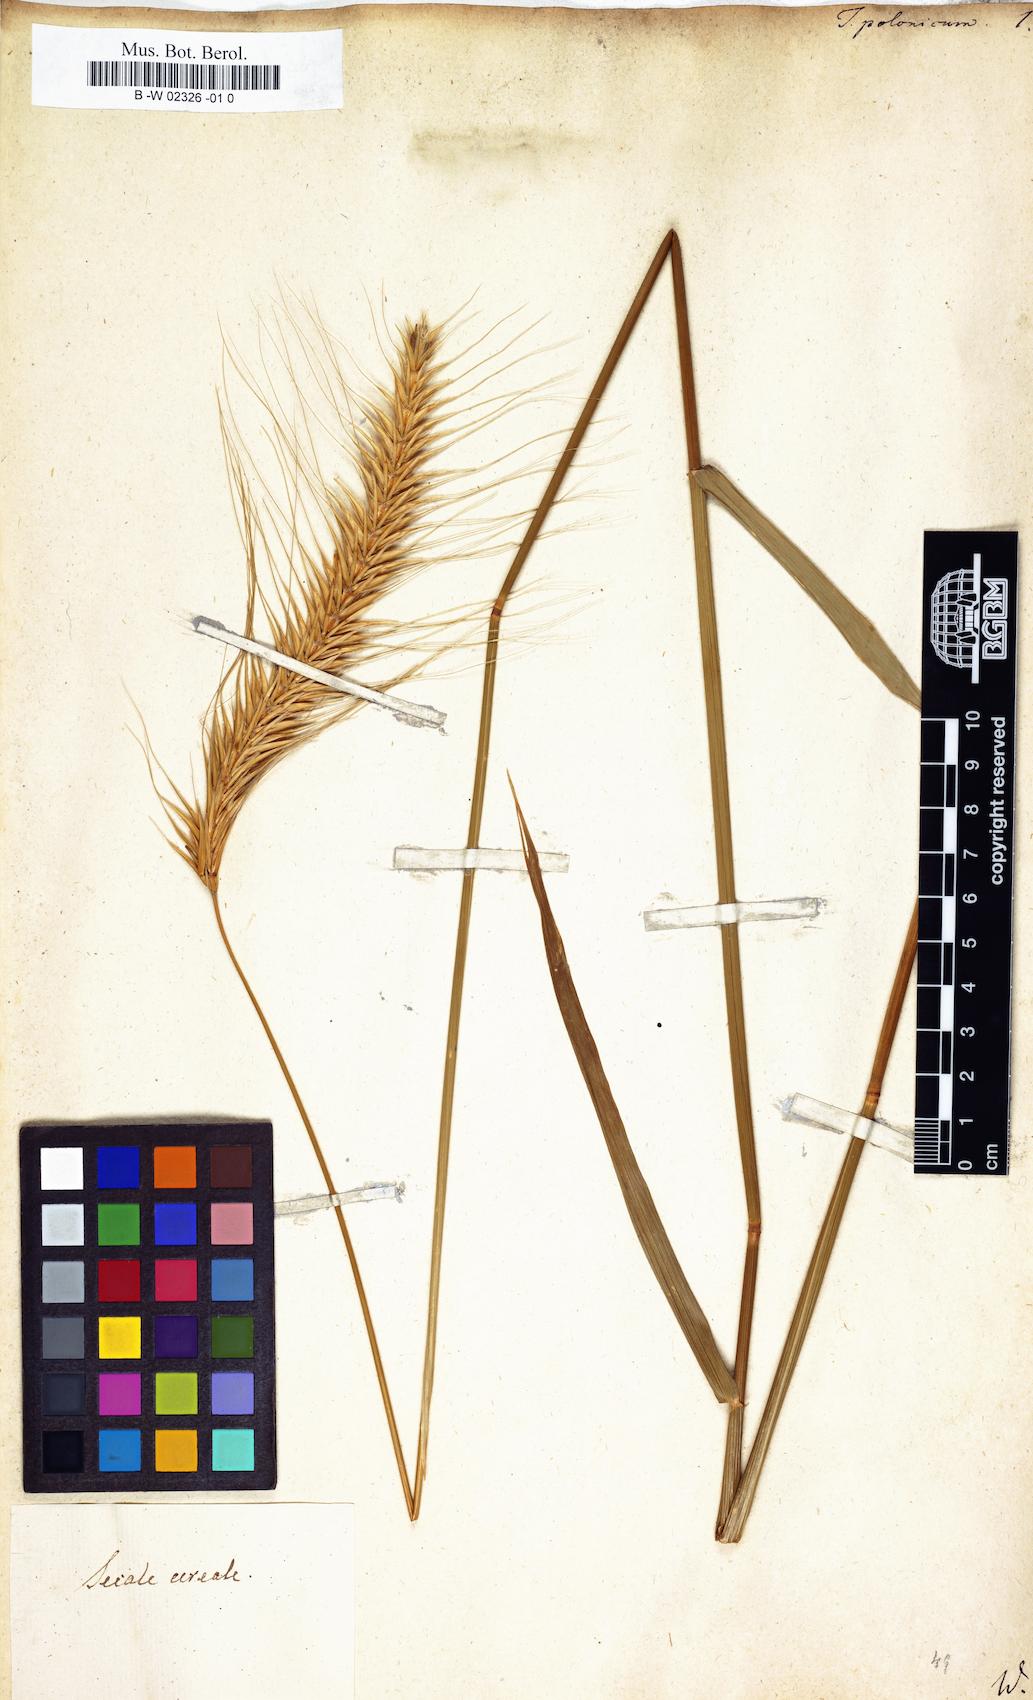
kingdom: Plantae
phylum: Tracheophyta
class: Liliopsida
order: Poales
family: Poaceae
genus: Secale
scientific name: Secale cereale
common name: Rye
